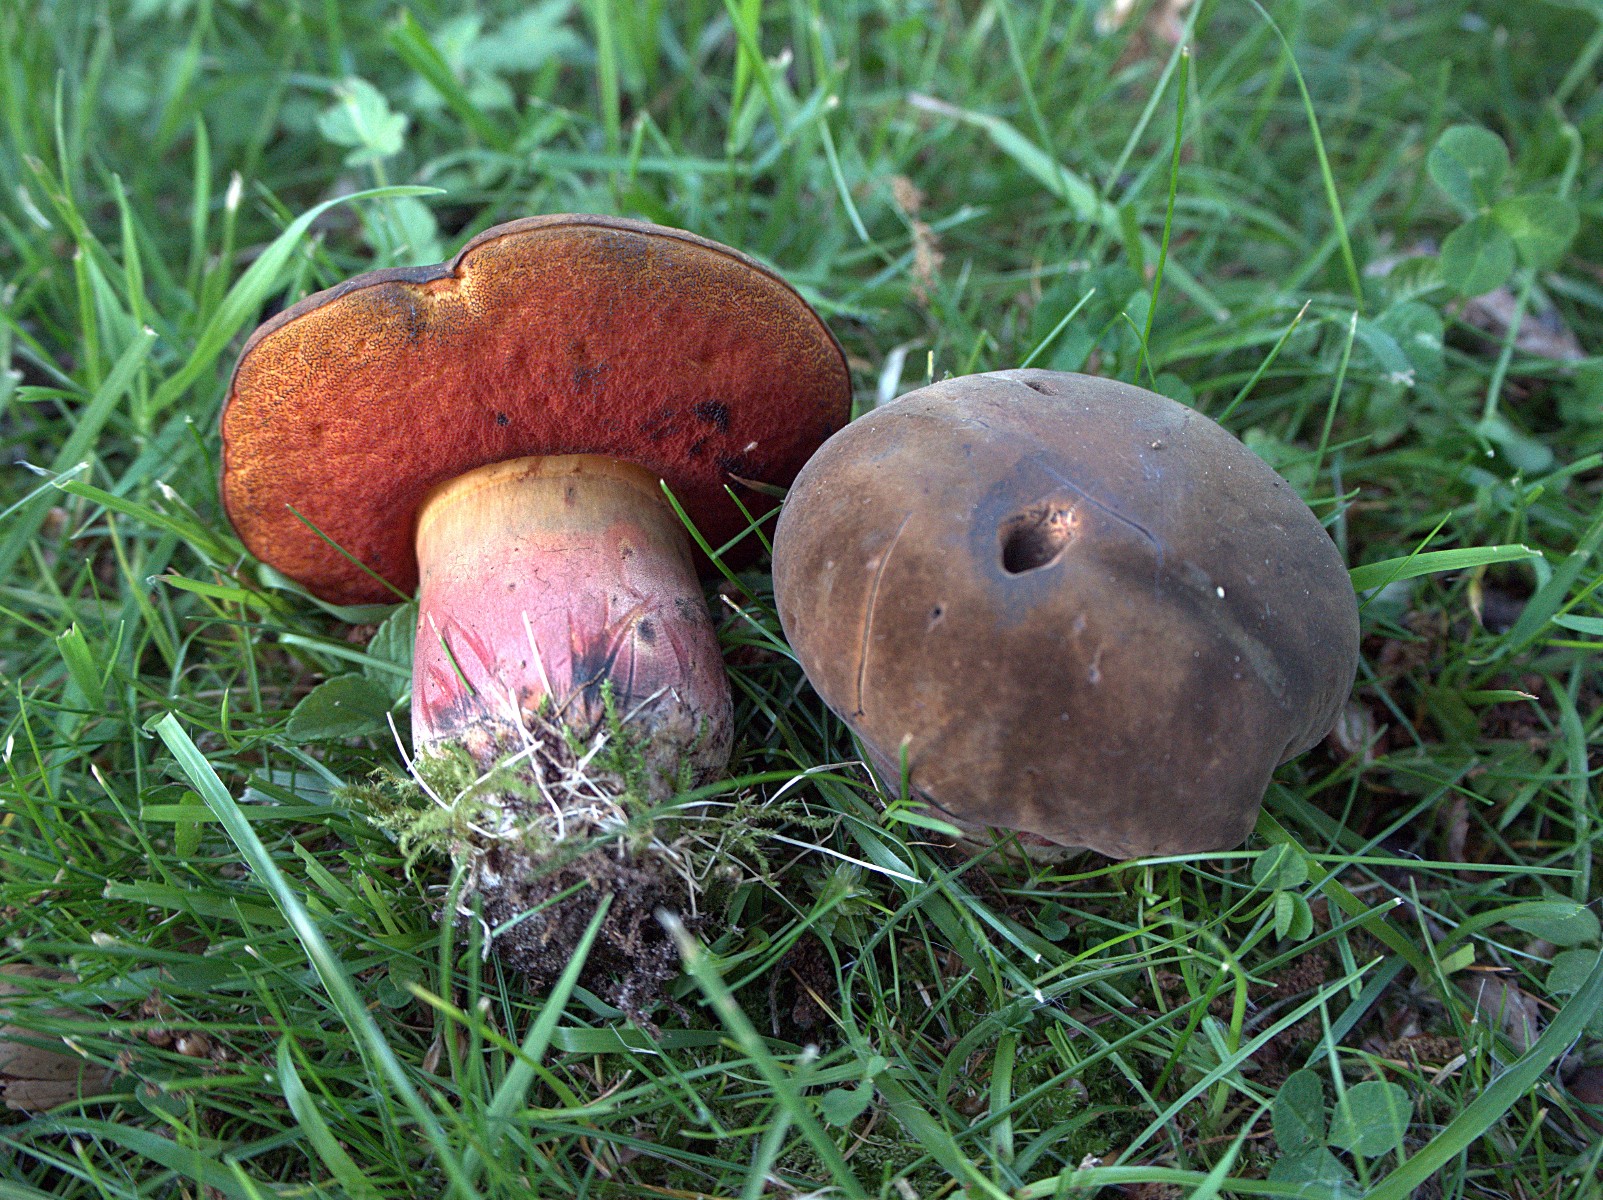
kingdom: Fungi
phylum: Basidiomycota
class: Agaricomycetes
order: Boletales
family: Boletaceae
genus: Neoboletus
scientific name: Neoboletus erythropus
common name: punktstokket indigorørhat
